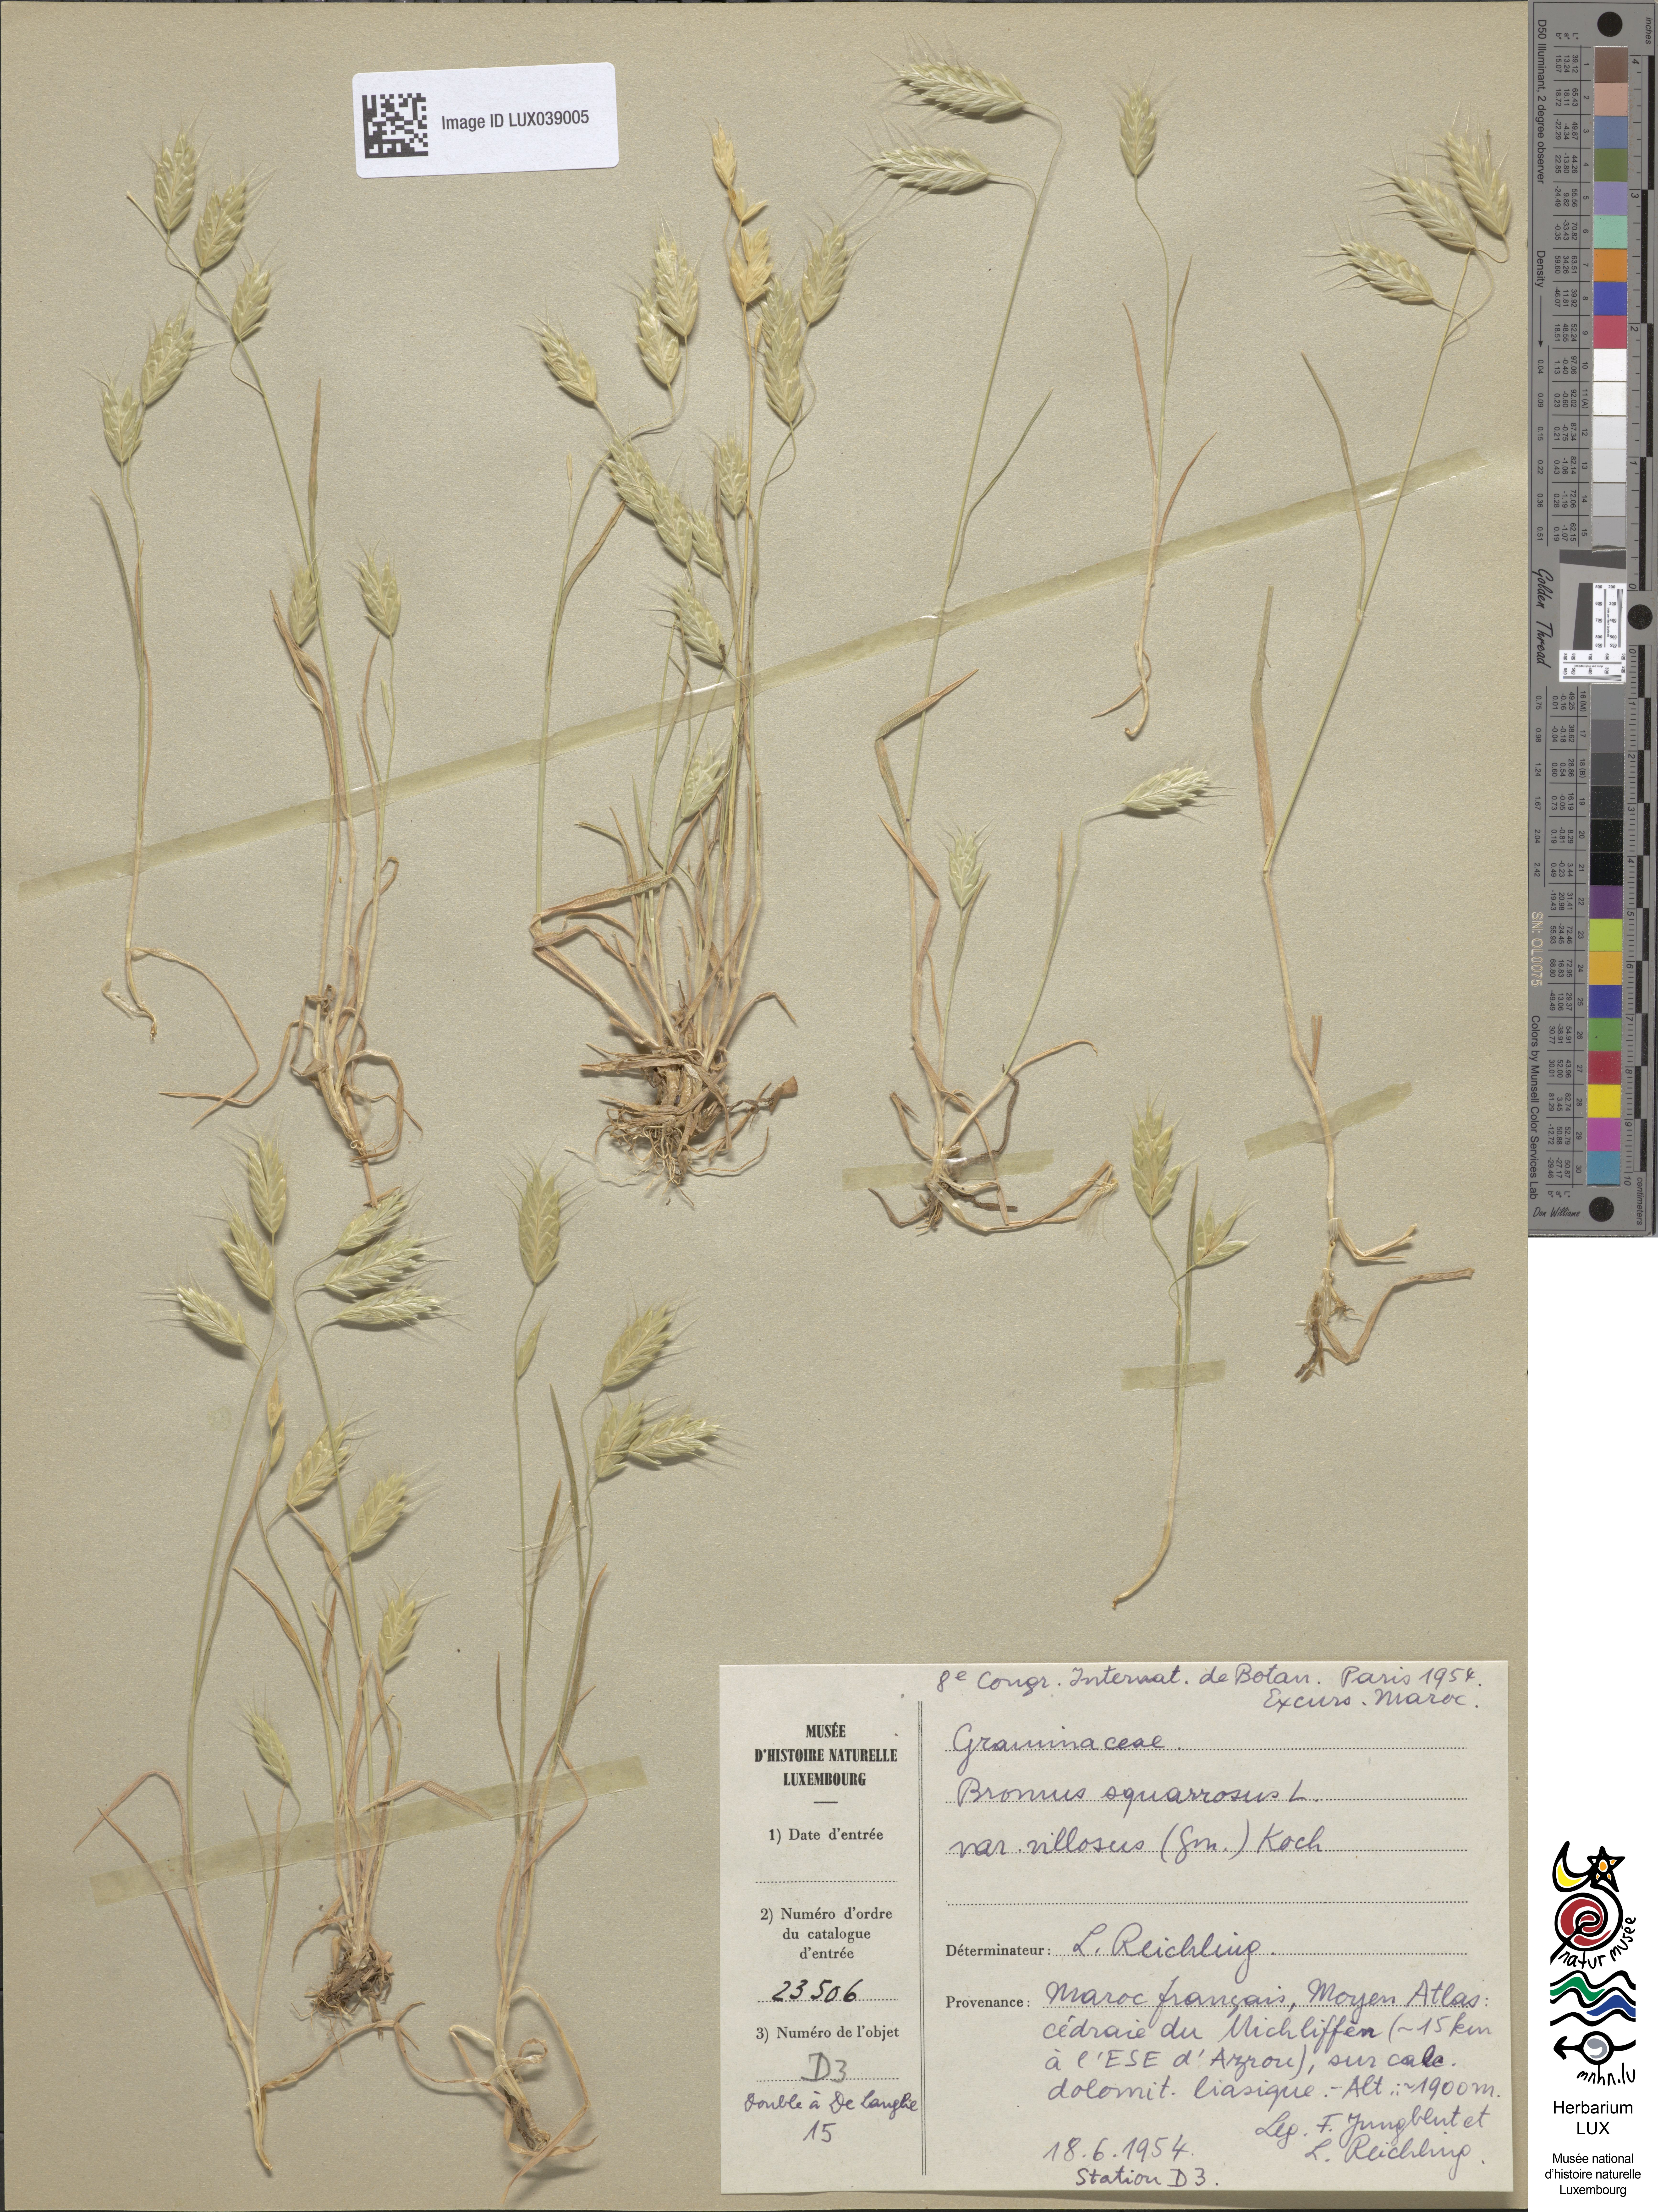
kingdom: Plantae
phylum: Tracheophyta
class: Liliopsida
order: Poales
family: Poaceae
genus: Bromus
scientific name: Bromus squarrosus
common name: Corn brome
